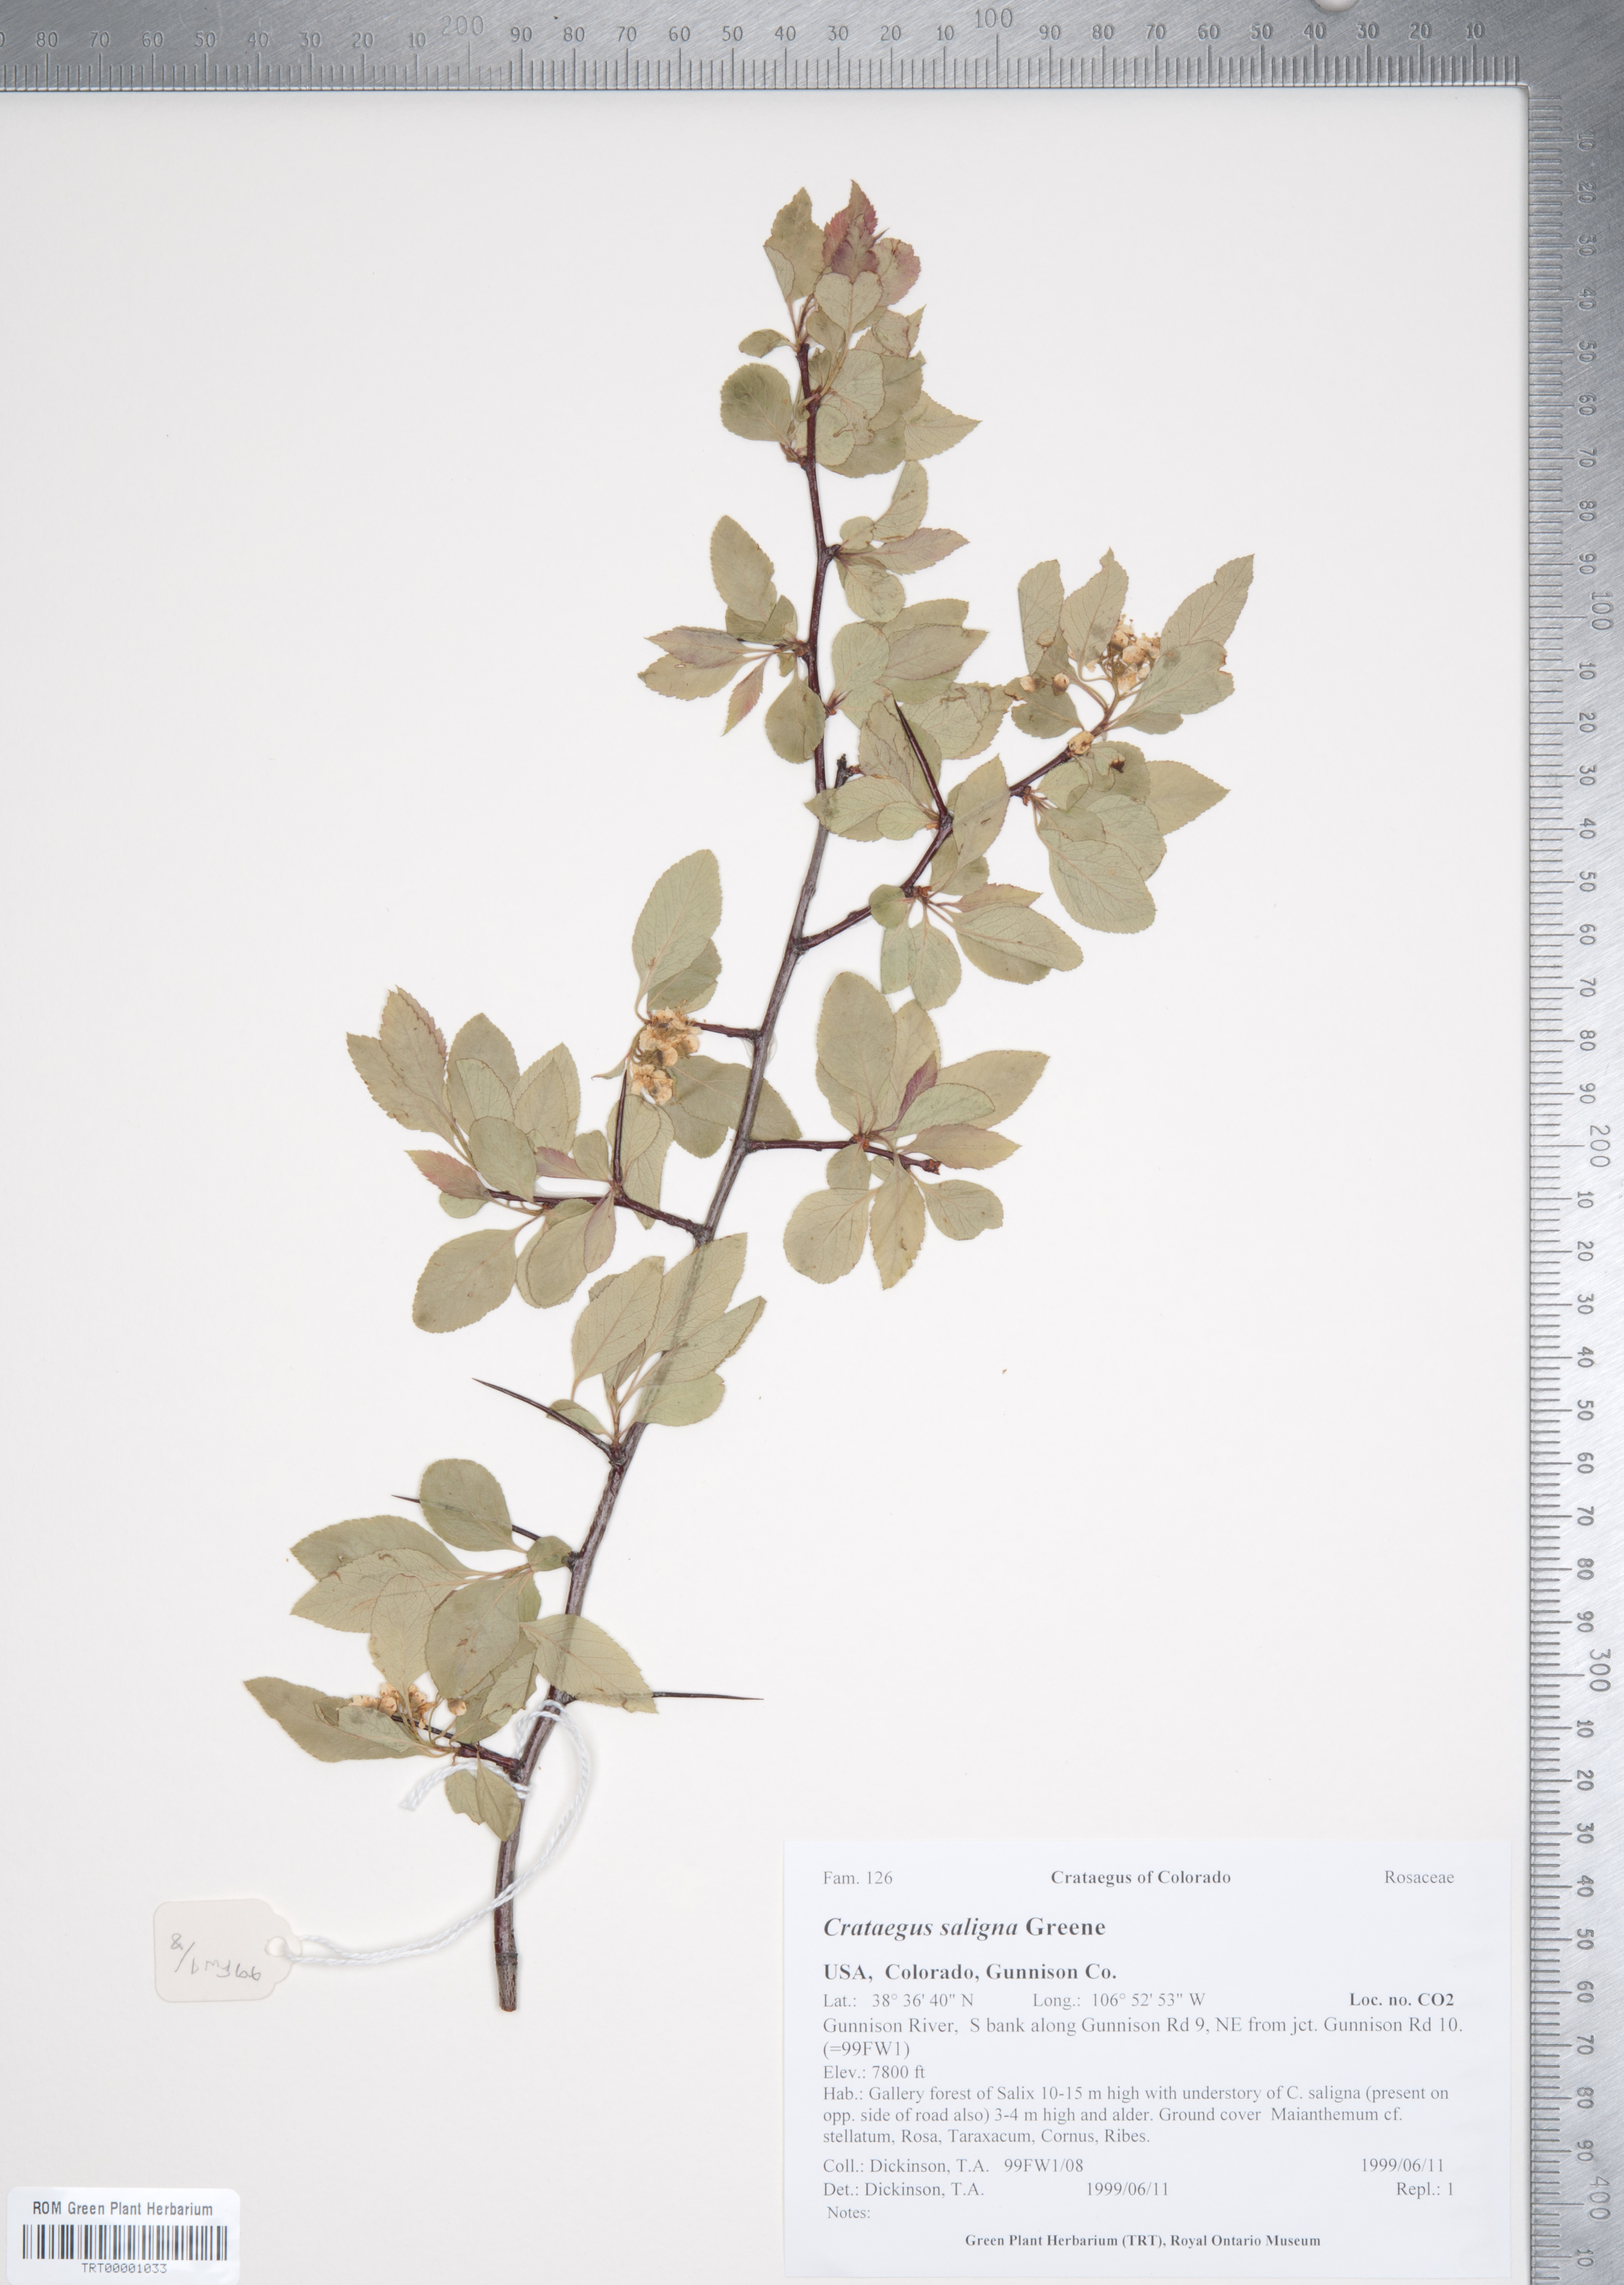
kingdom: Plantae
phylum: Tracheophyta
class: Magnoliopsida
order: Rosales
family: Rosaceae
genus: Crataegus
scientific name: Crataegus saligna
